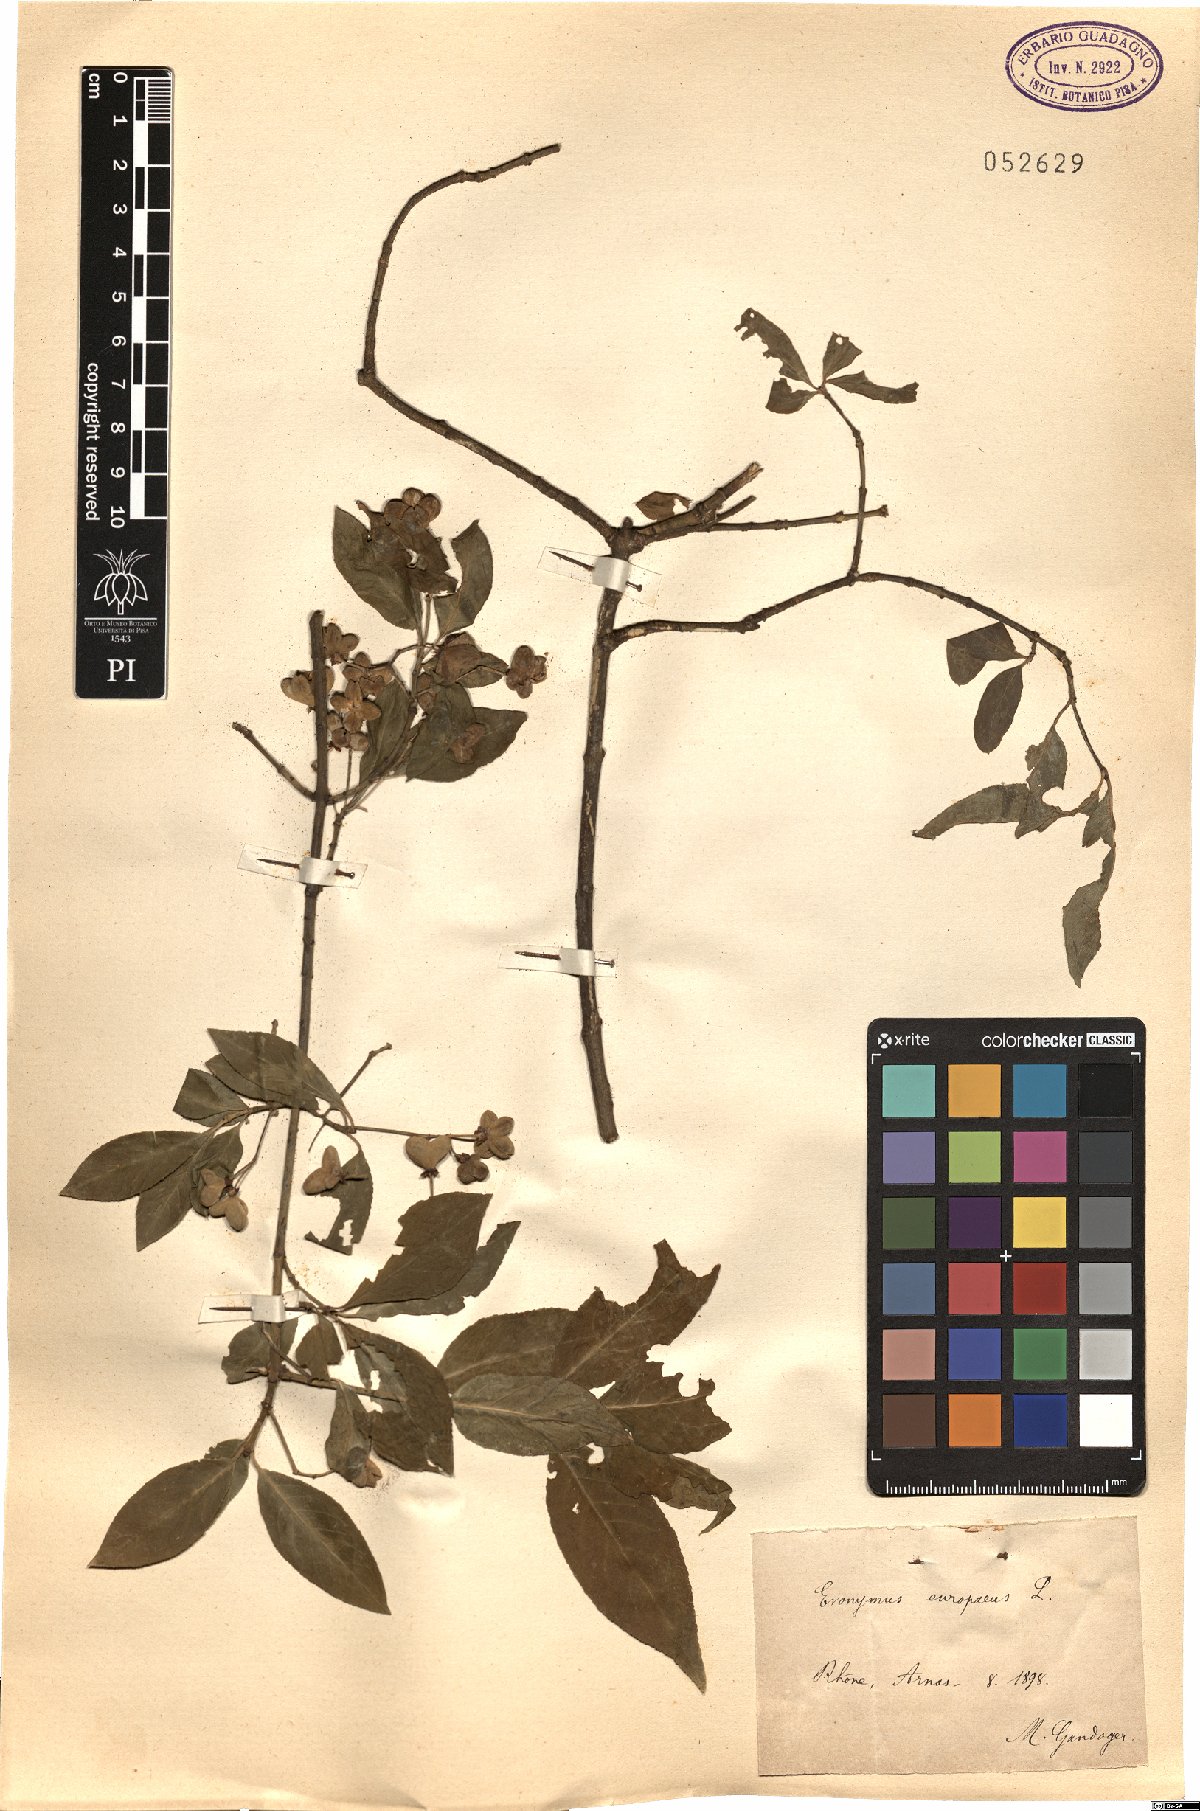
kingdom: Plantae
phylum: Tracheophyta
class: Magnoliopsida
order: Celastrales
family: Celastraceae
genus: Euonymus
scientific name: Euonymus europaeus
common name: Spindle
